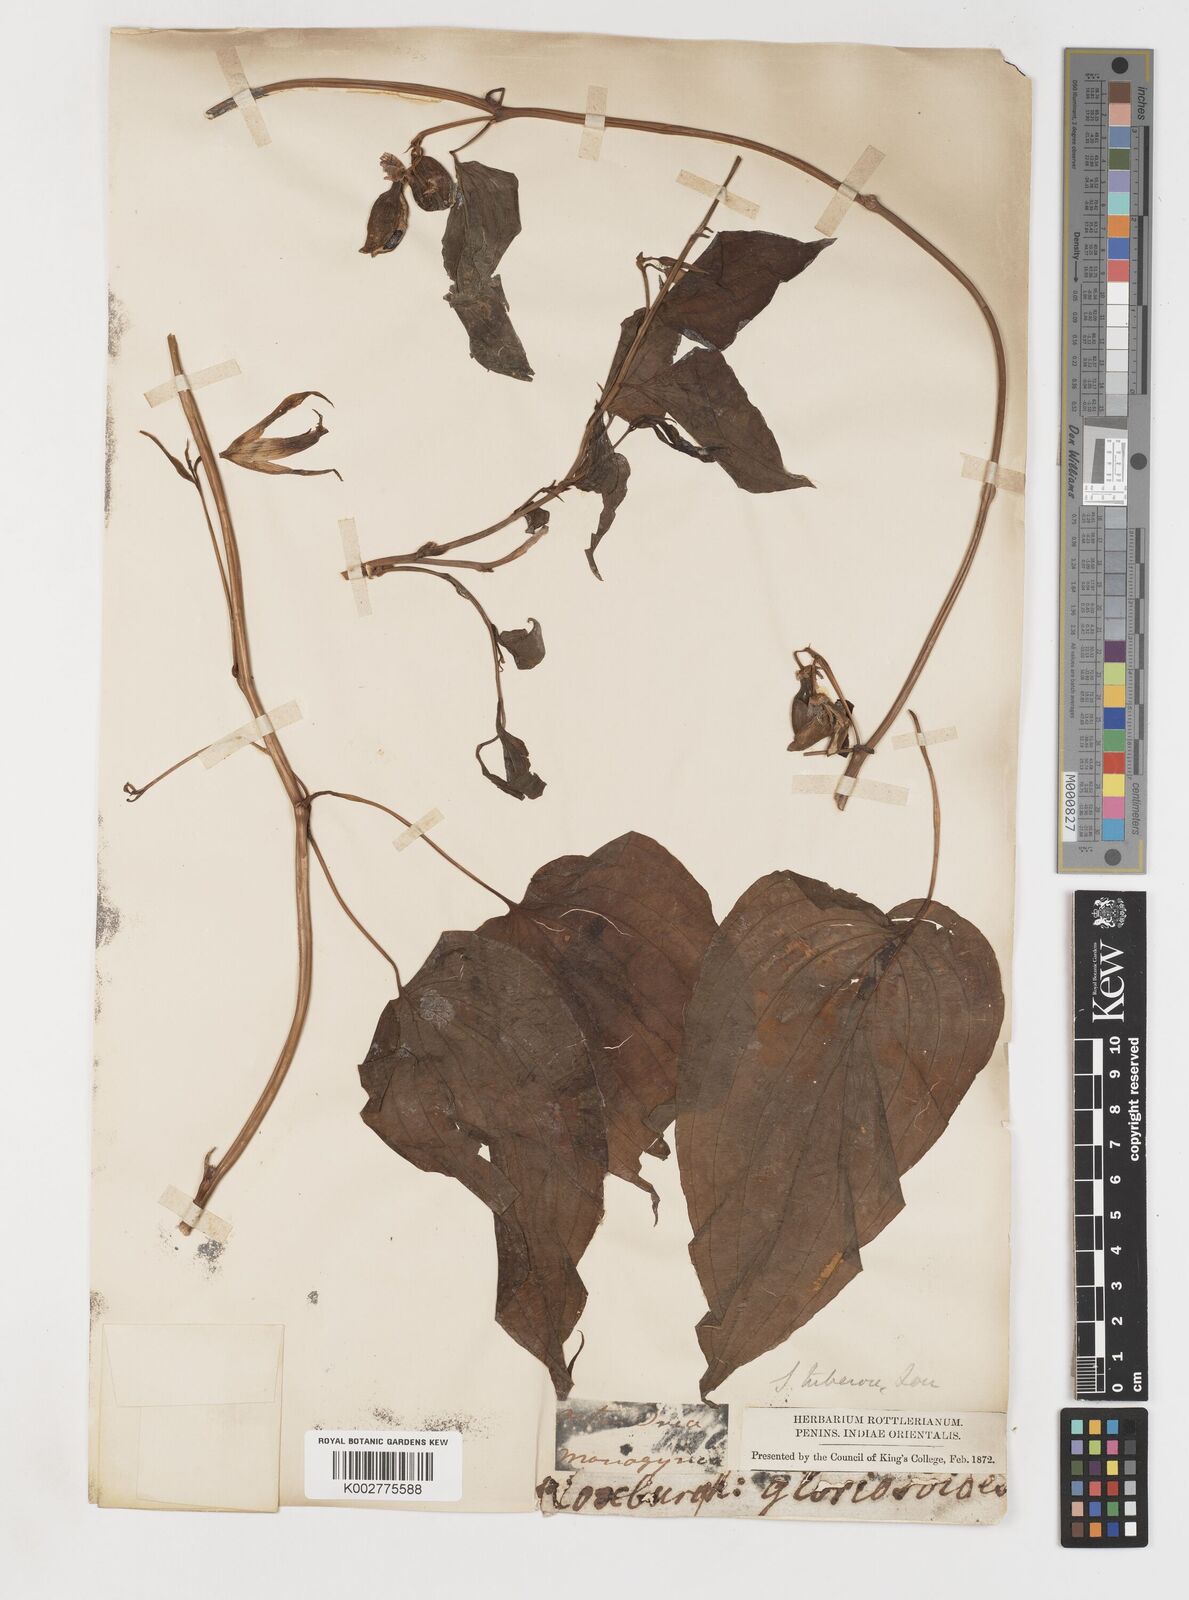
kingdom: Plantae
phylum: Tracheophyta
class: Liliopsida
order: Pandanales
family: Stemonaceae
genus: Stemona
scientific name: Stemona tuberosa
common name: Stemona
